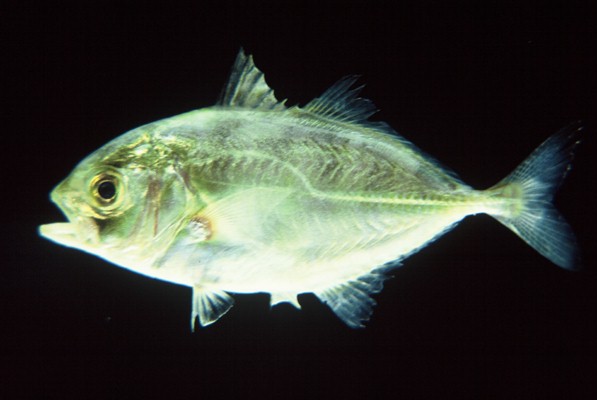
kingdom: Animalia
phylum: Chordata
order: Perciformes
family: Carangidae
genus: Caranx
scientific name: Caranx heberi
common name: Blacktip trevally
